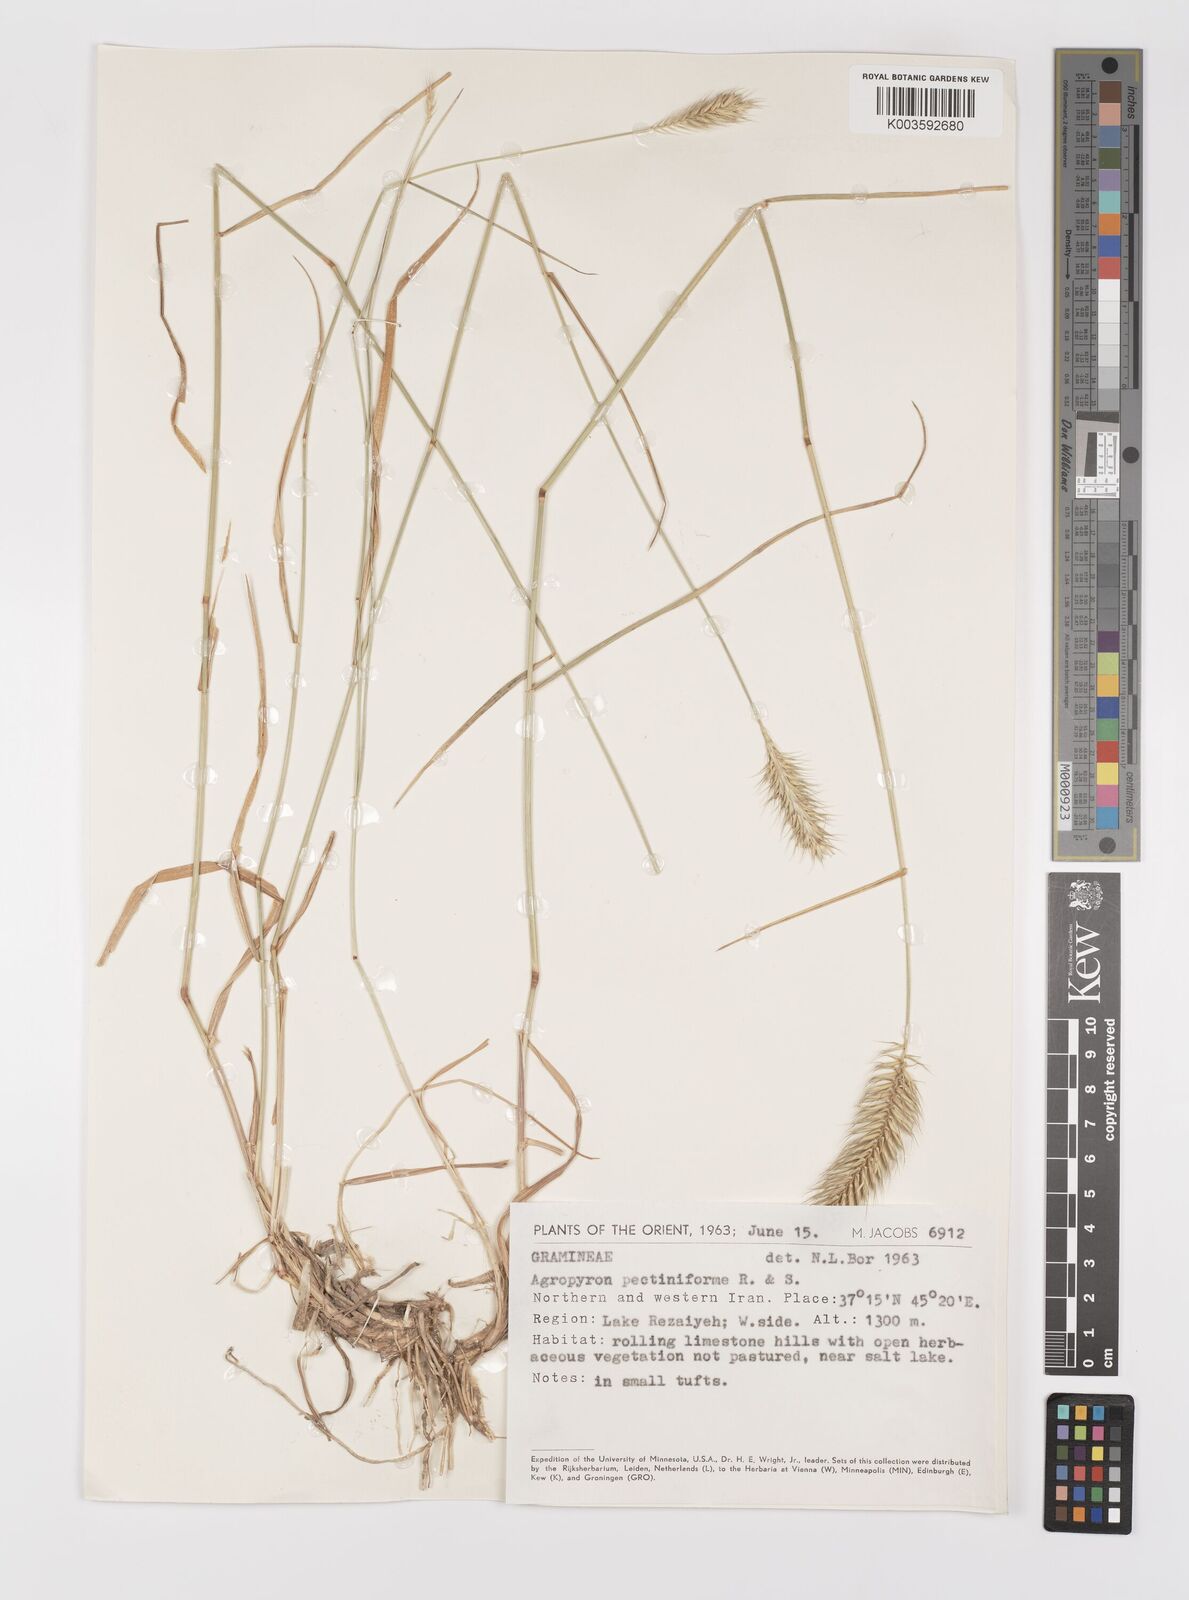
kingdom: Plantae
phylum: Tracheophyta
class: Liliopsida
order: Poales
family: Poaceae
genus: Agropyron
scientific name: Agropyron
